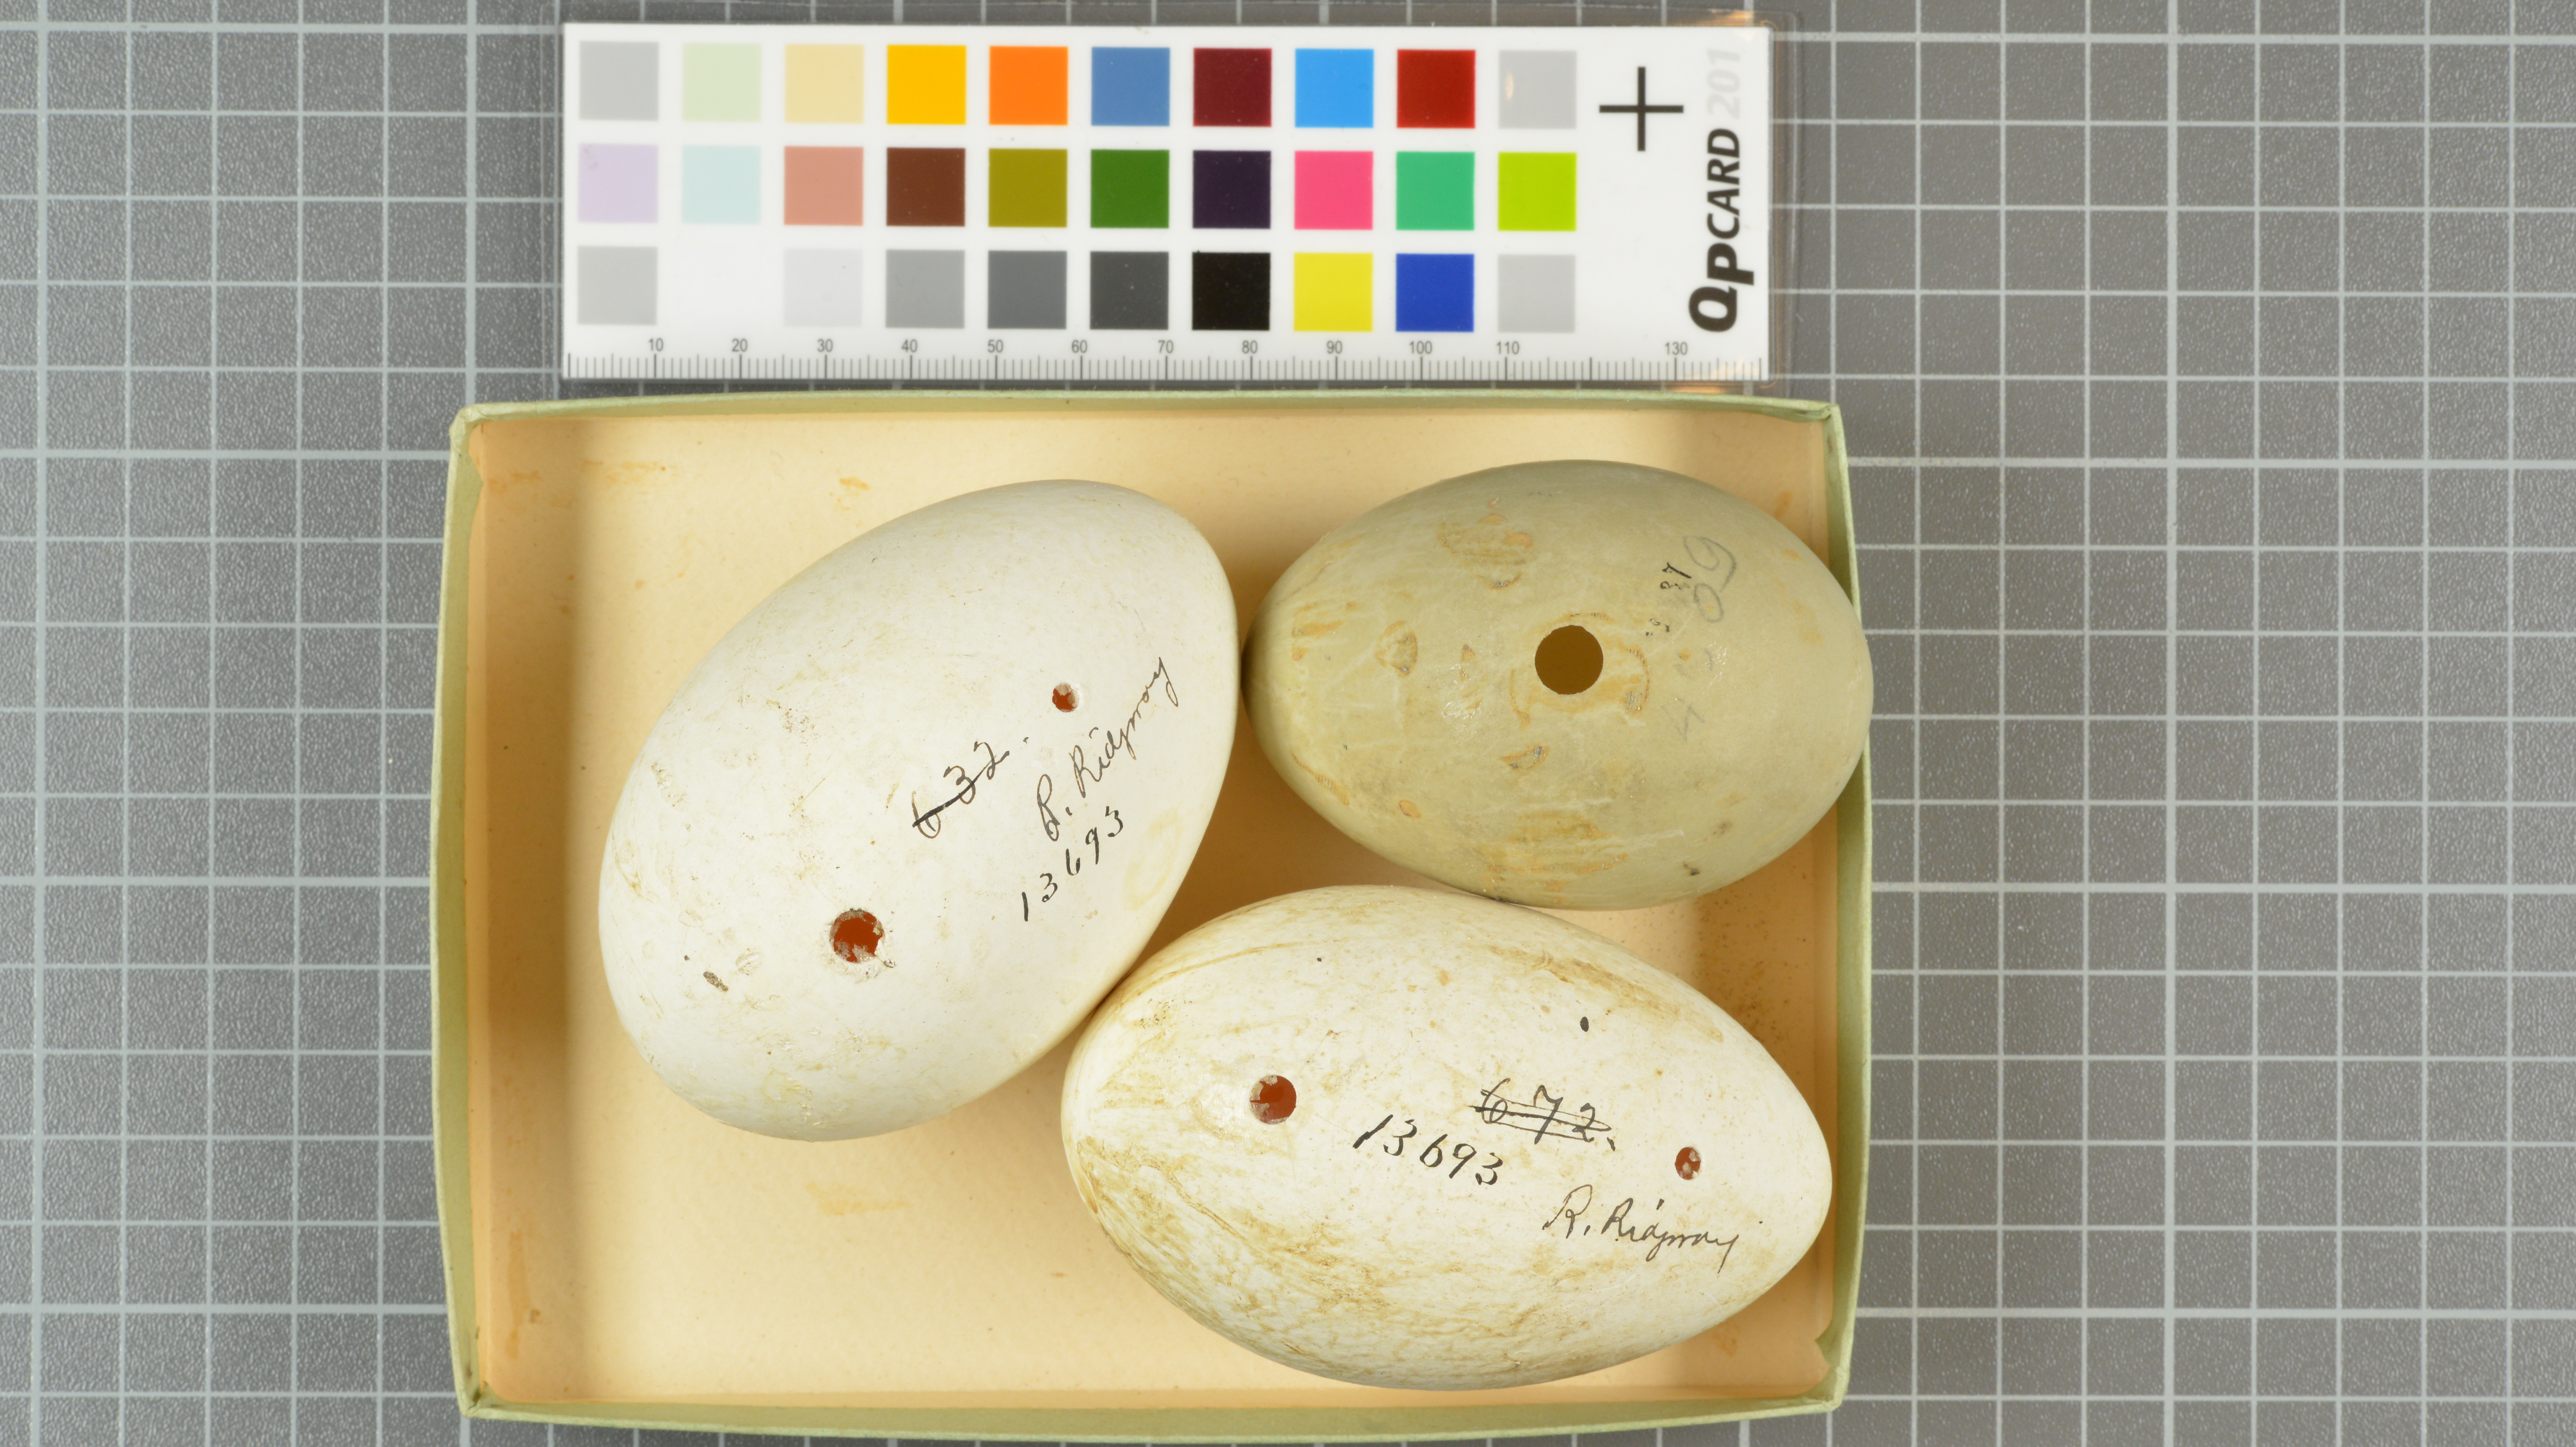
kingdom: Animalia
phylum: Chordata
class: Aves
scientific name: Aves
